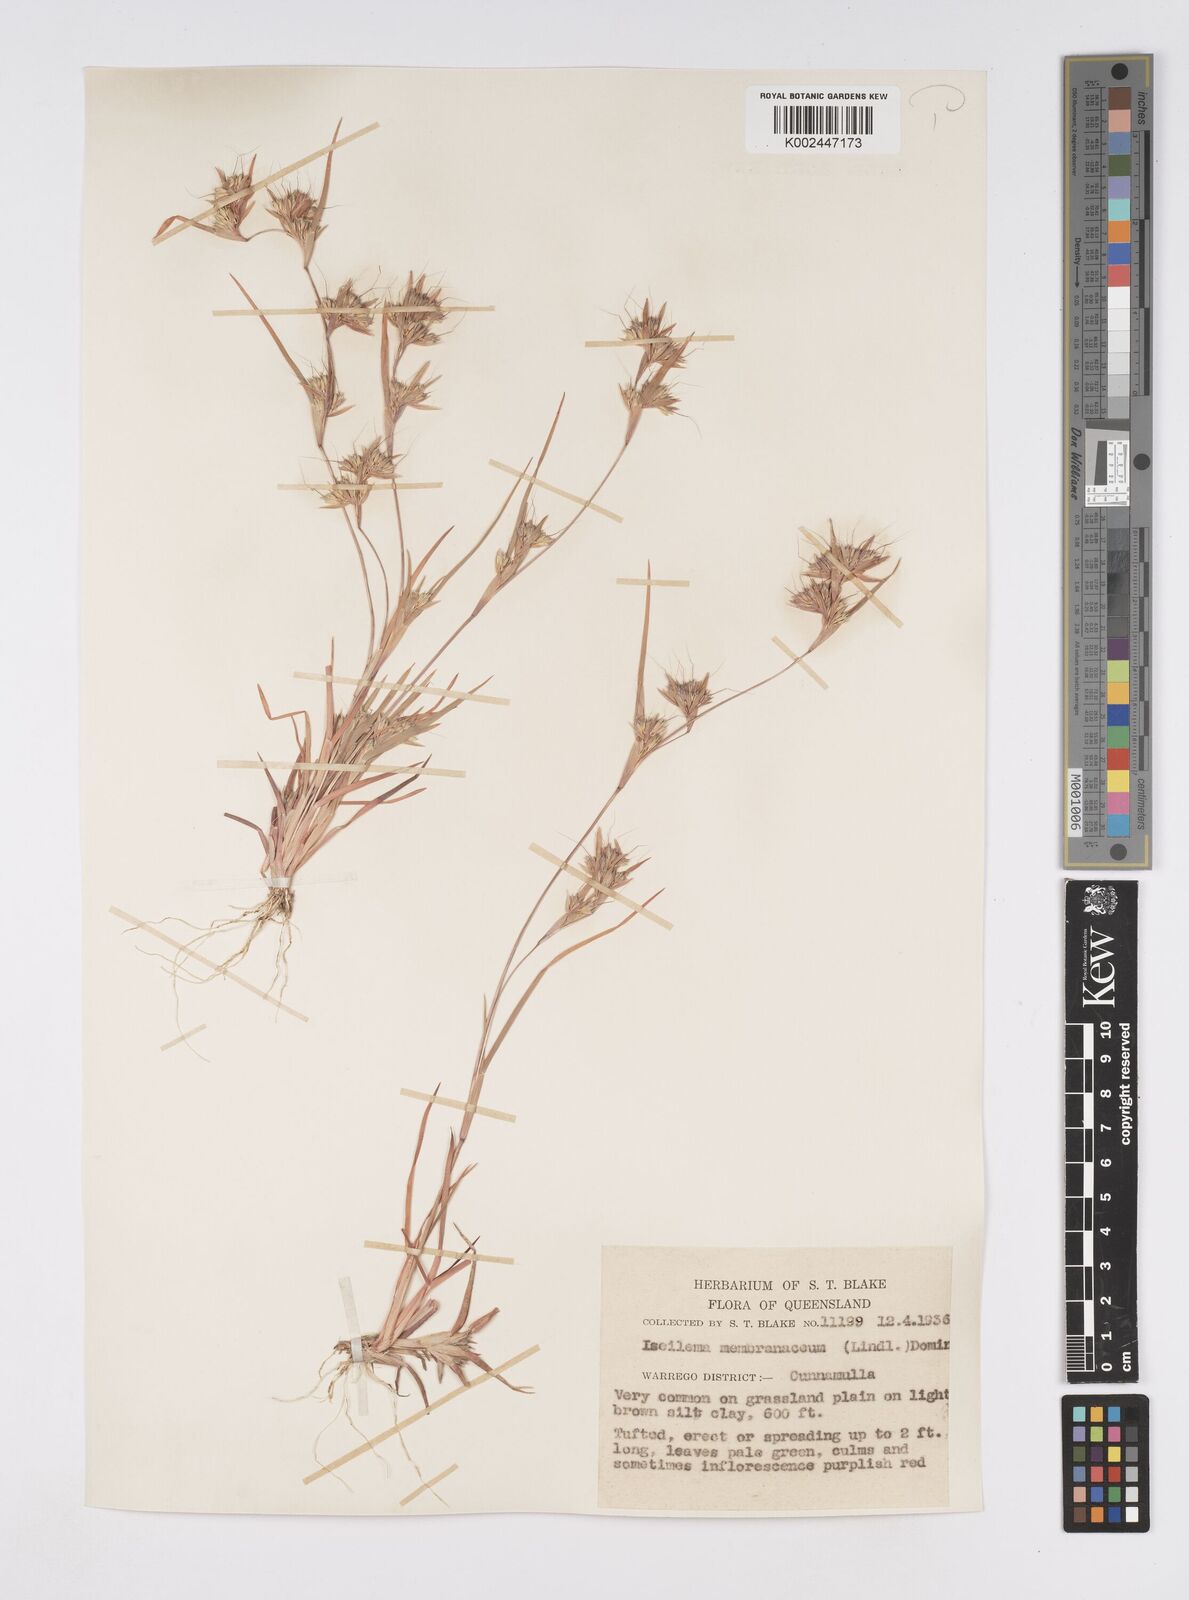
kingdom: Plantae
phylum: Tracheophyta
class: Liliopsida
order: Poales
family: Poaceae
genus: Iseilema
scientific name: Iseilema membranaceum
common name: Small flinders grass
